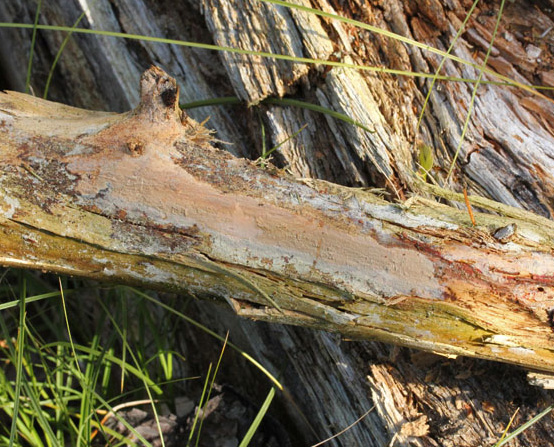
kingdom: Fungi
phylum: Basidiomycota
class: Agaricomycetes
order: Polyporales
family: Meruliaceae
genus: Mycoacia
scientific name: Mycoacia livida
